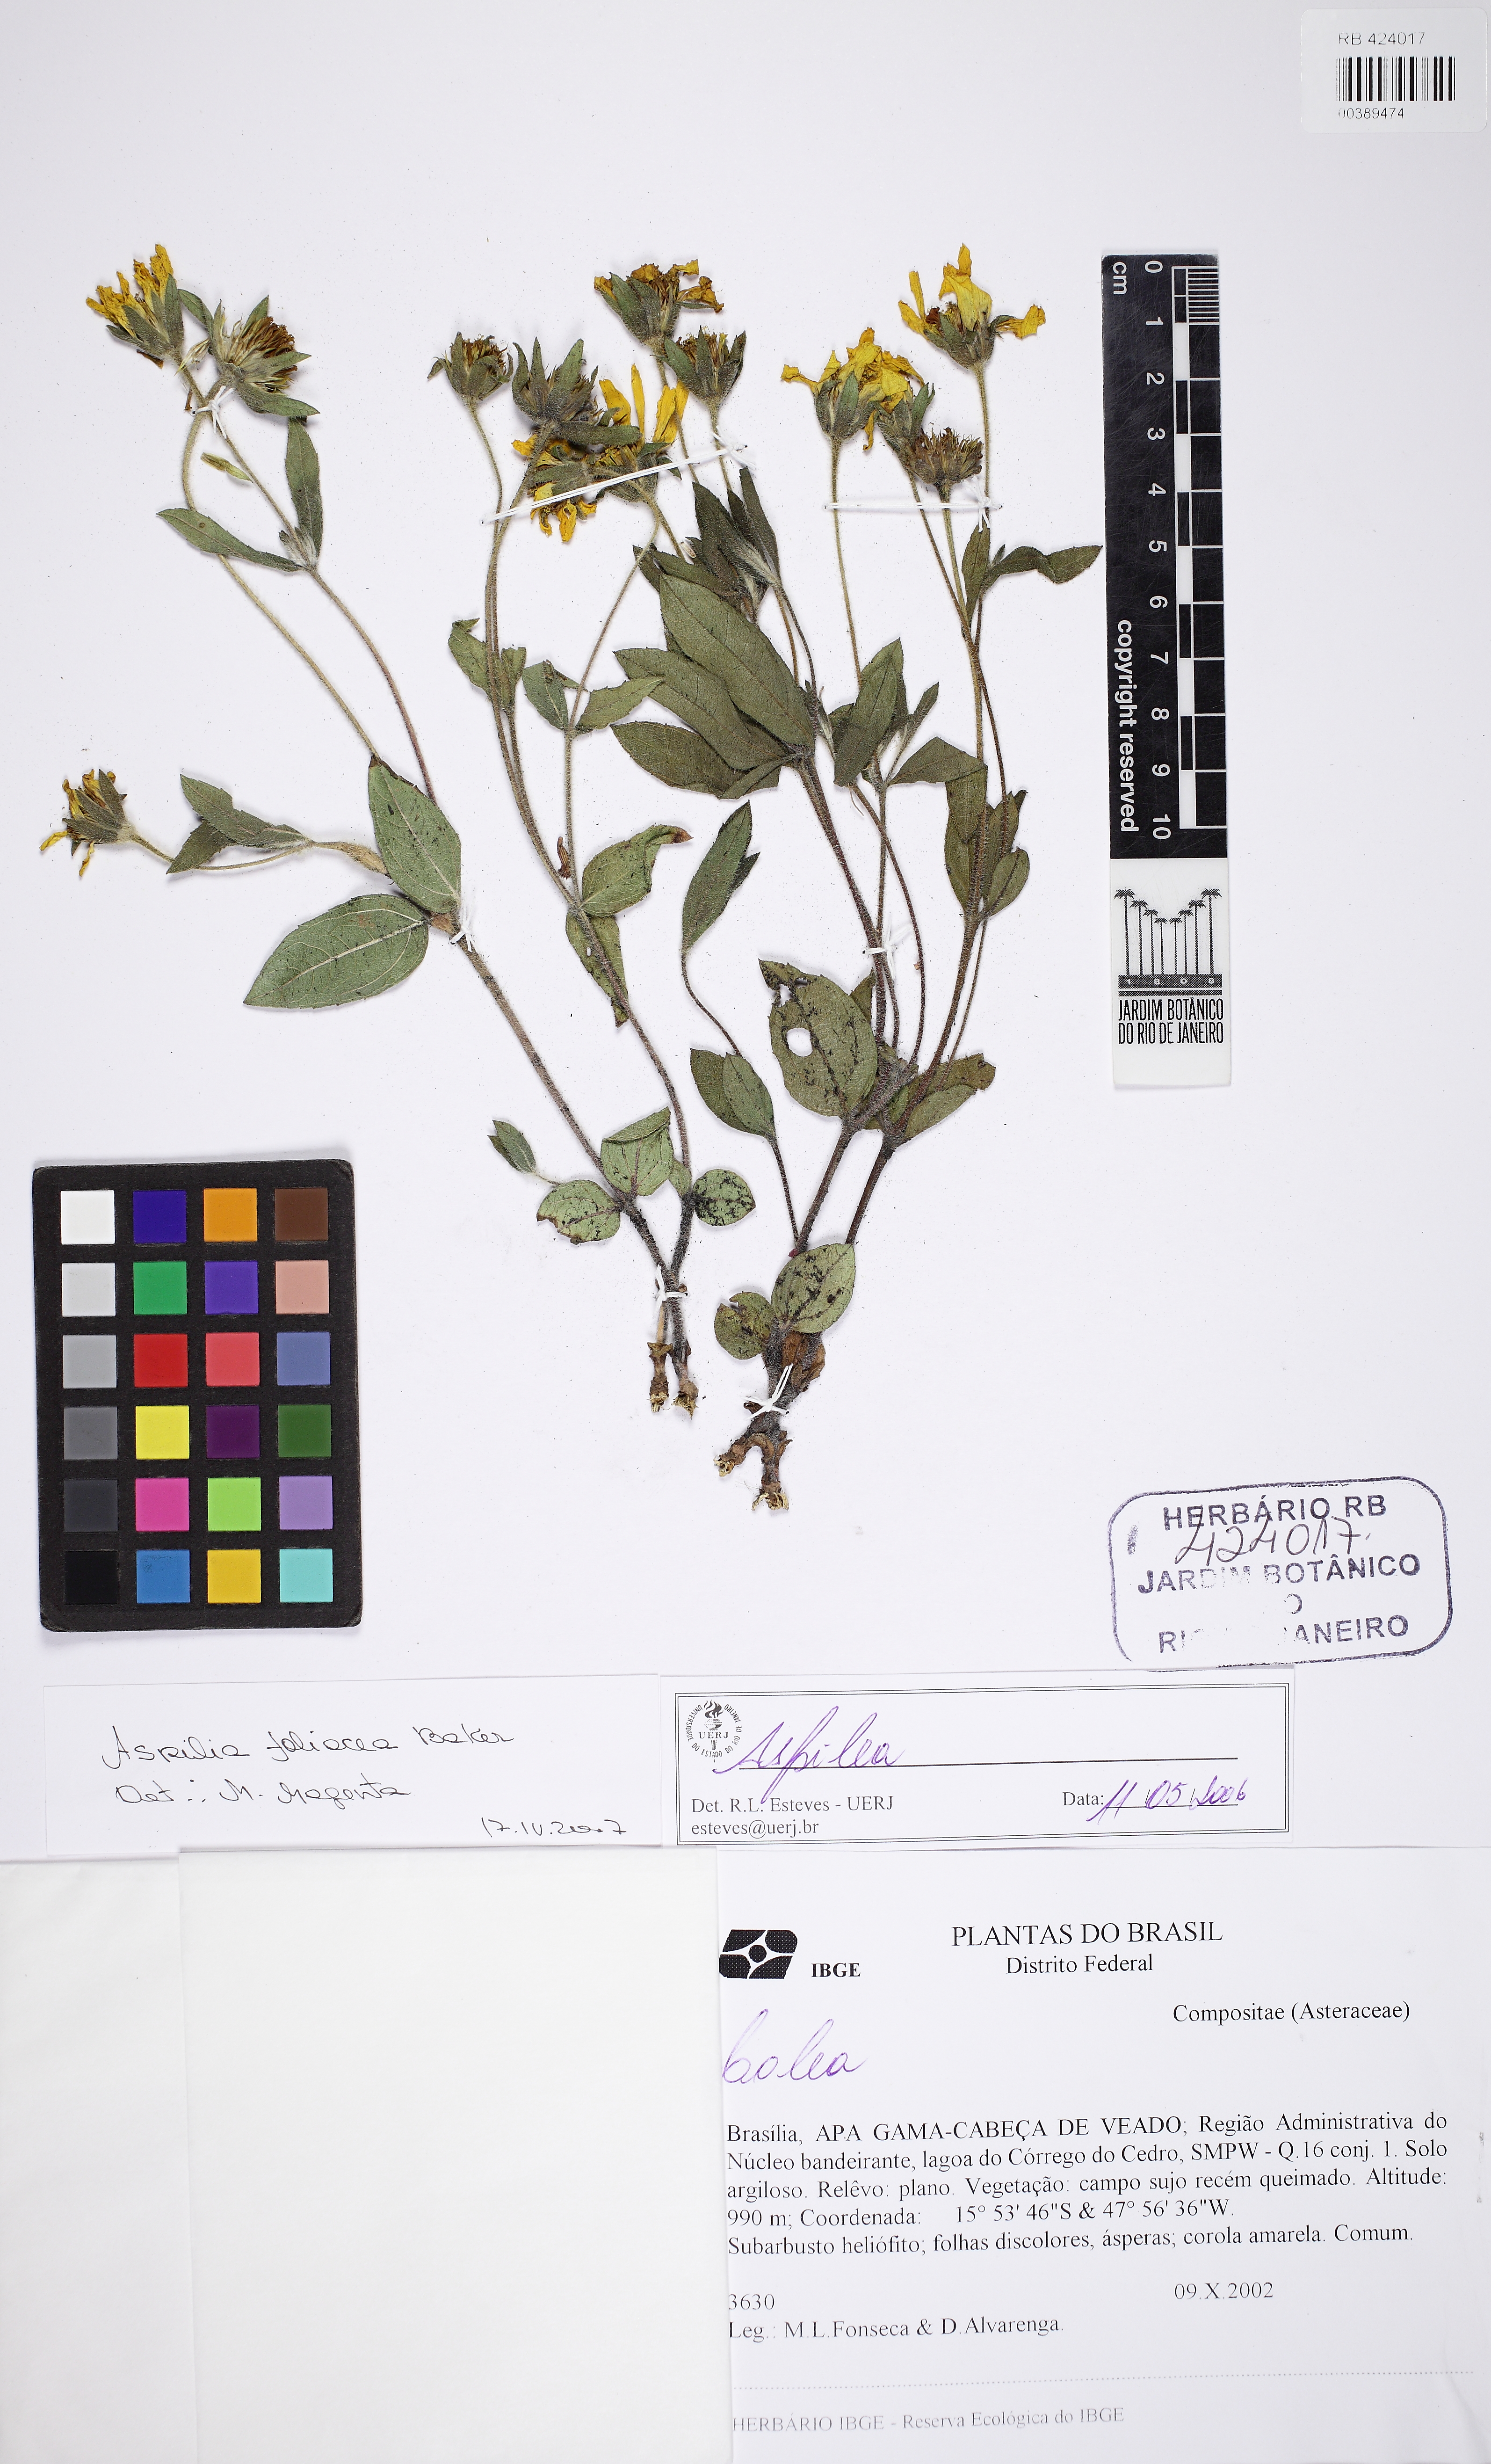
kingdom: Plantae
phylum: Tracheophyta
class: Magnoliopsida
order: Asterales
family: Asteraceae
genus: Wedelia
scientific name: Wedelia foliacea
